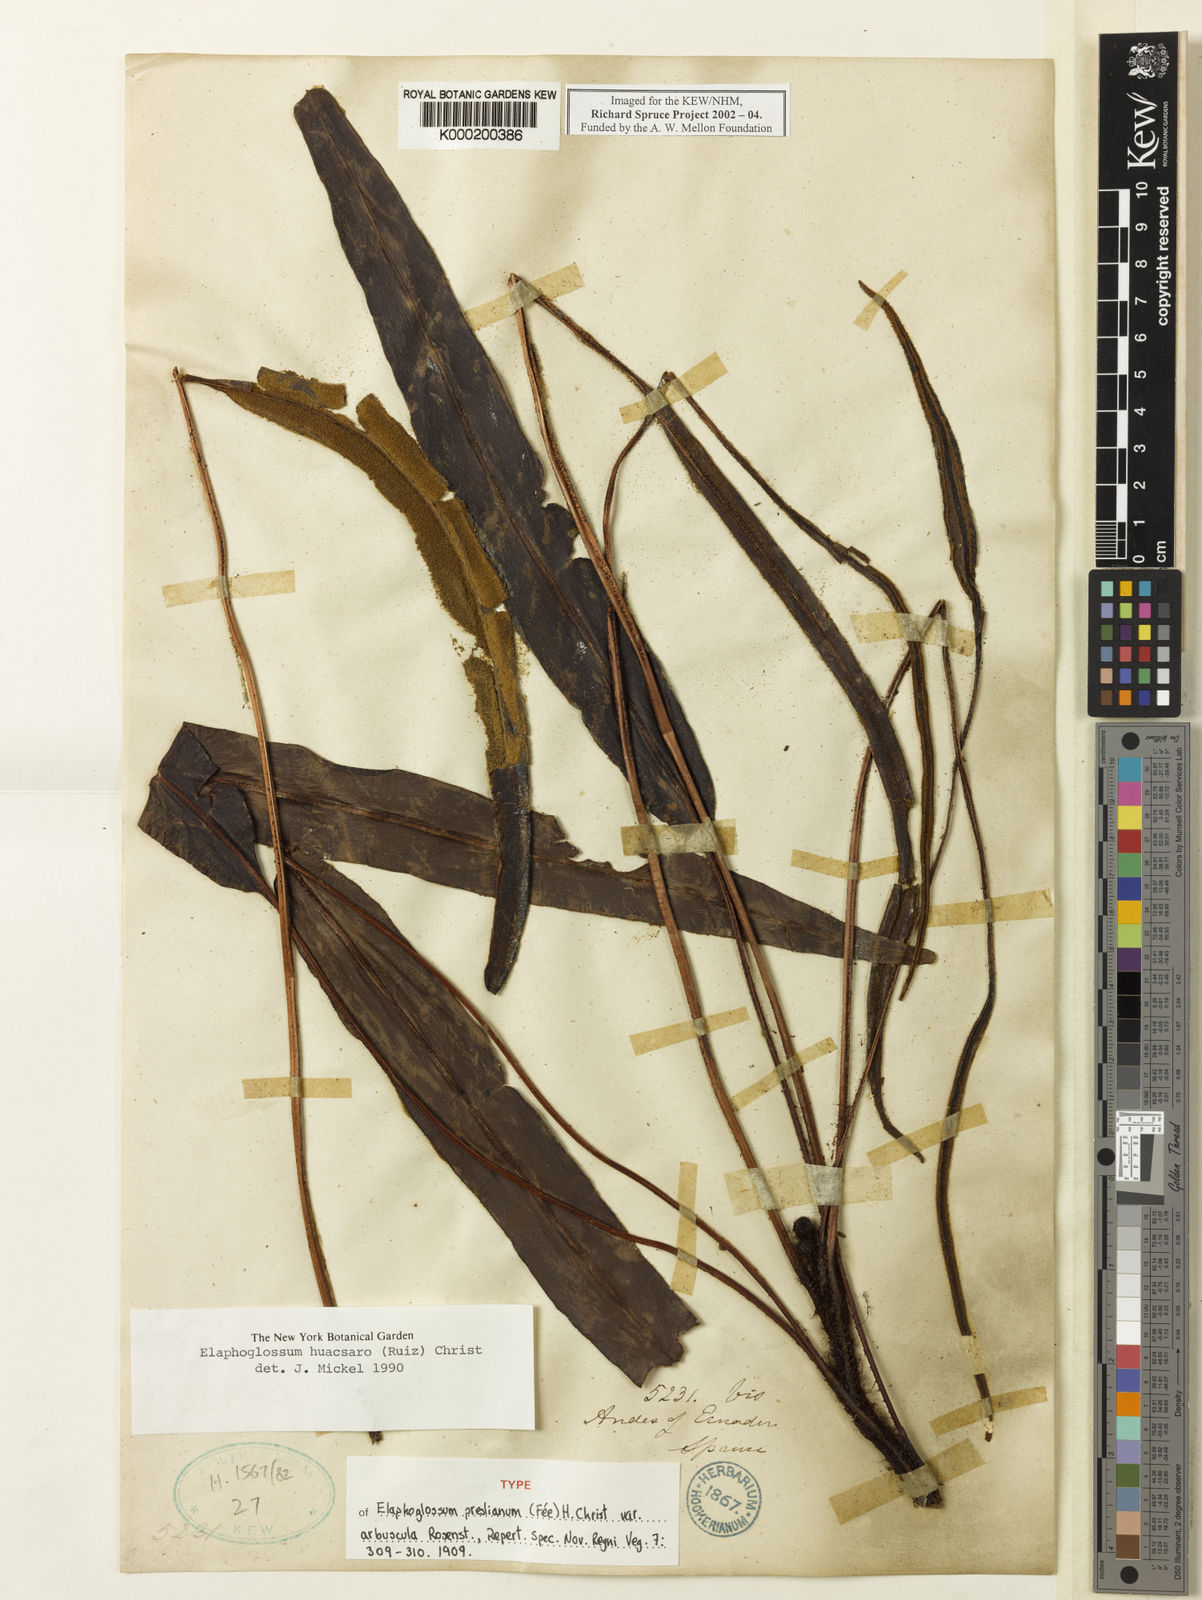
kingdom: Plantae
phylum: Tracheophyta
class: Polypodiopsida
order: Polypodiales
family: Dryopteridaceae
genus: Elaphoglossum
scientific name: Elaphoglossum huacsaro
